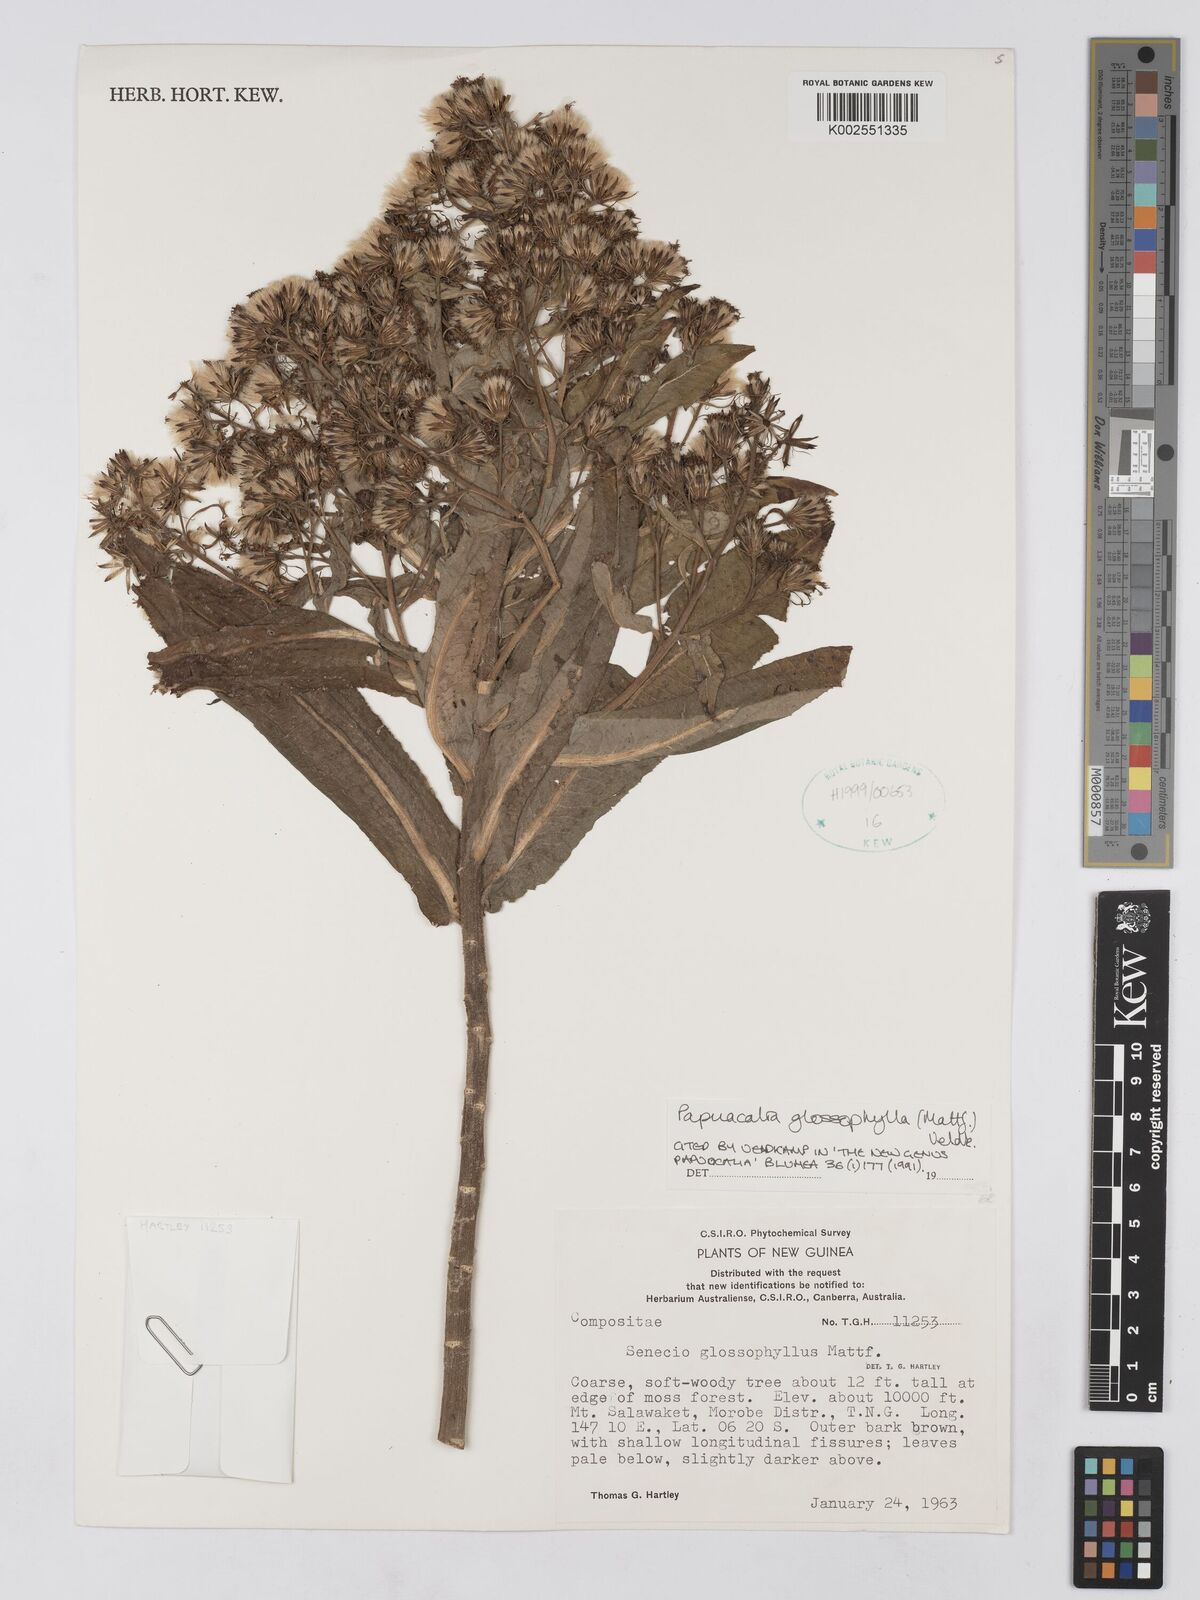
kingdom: Plantae
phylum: Tracheophyta
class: Magnoliopsida
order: Asterales
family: Asteraceae
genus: Papuacalia
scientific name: Papuacalia glossophylla
